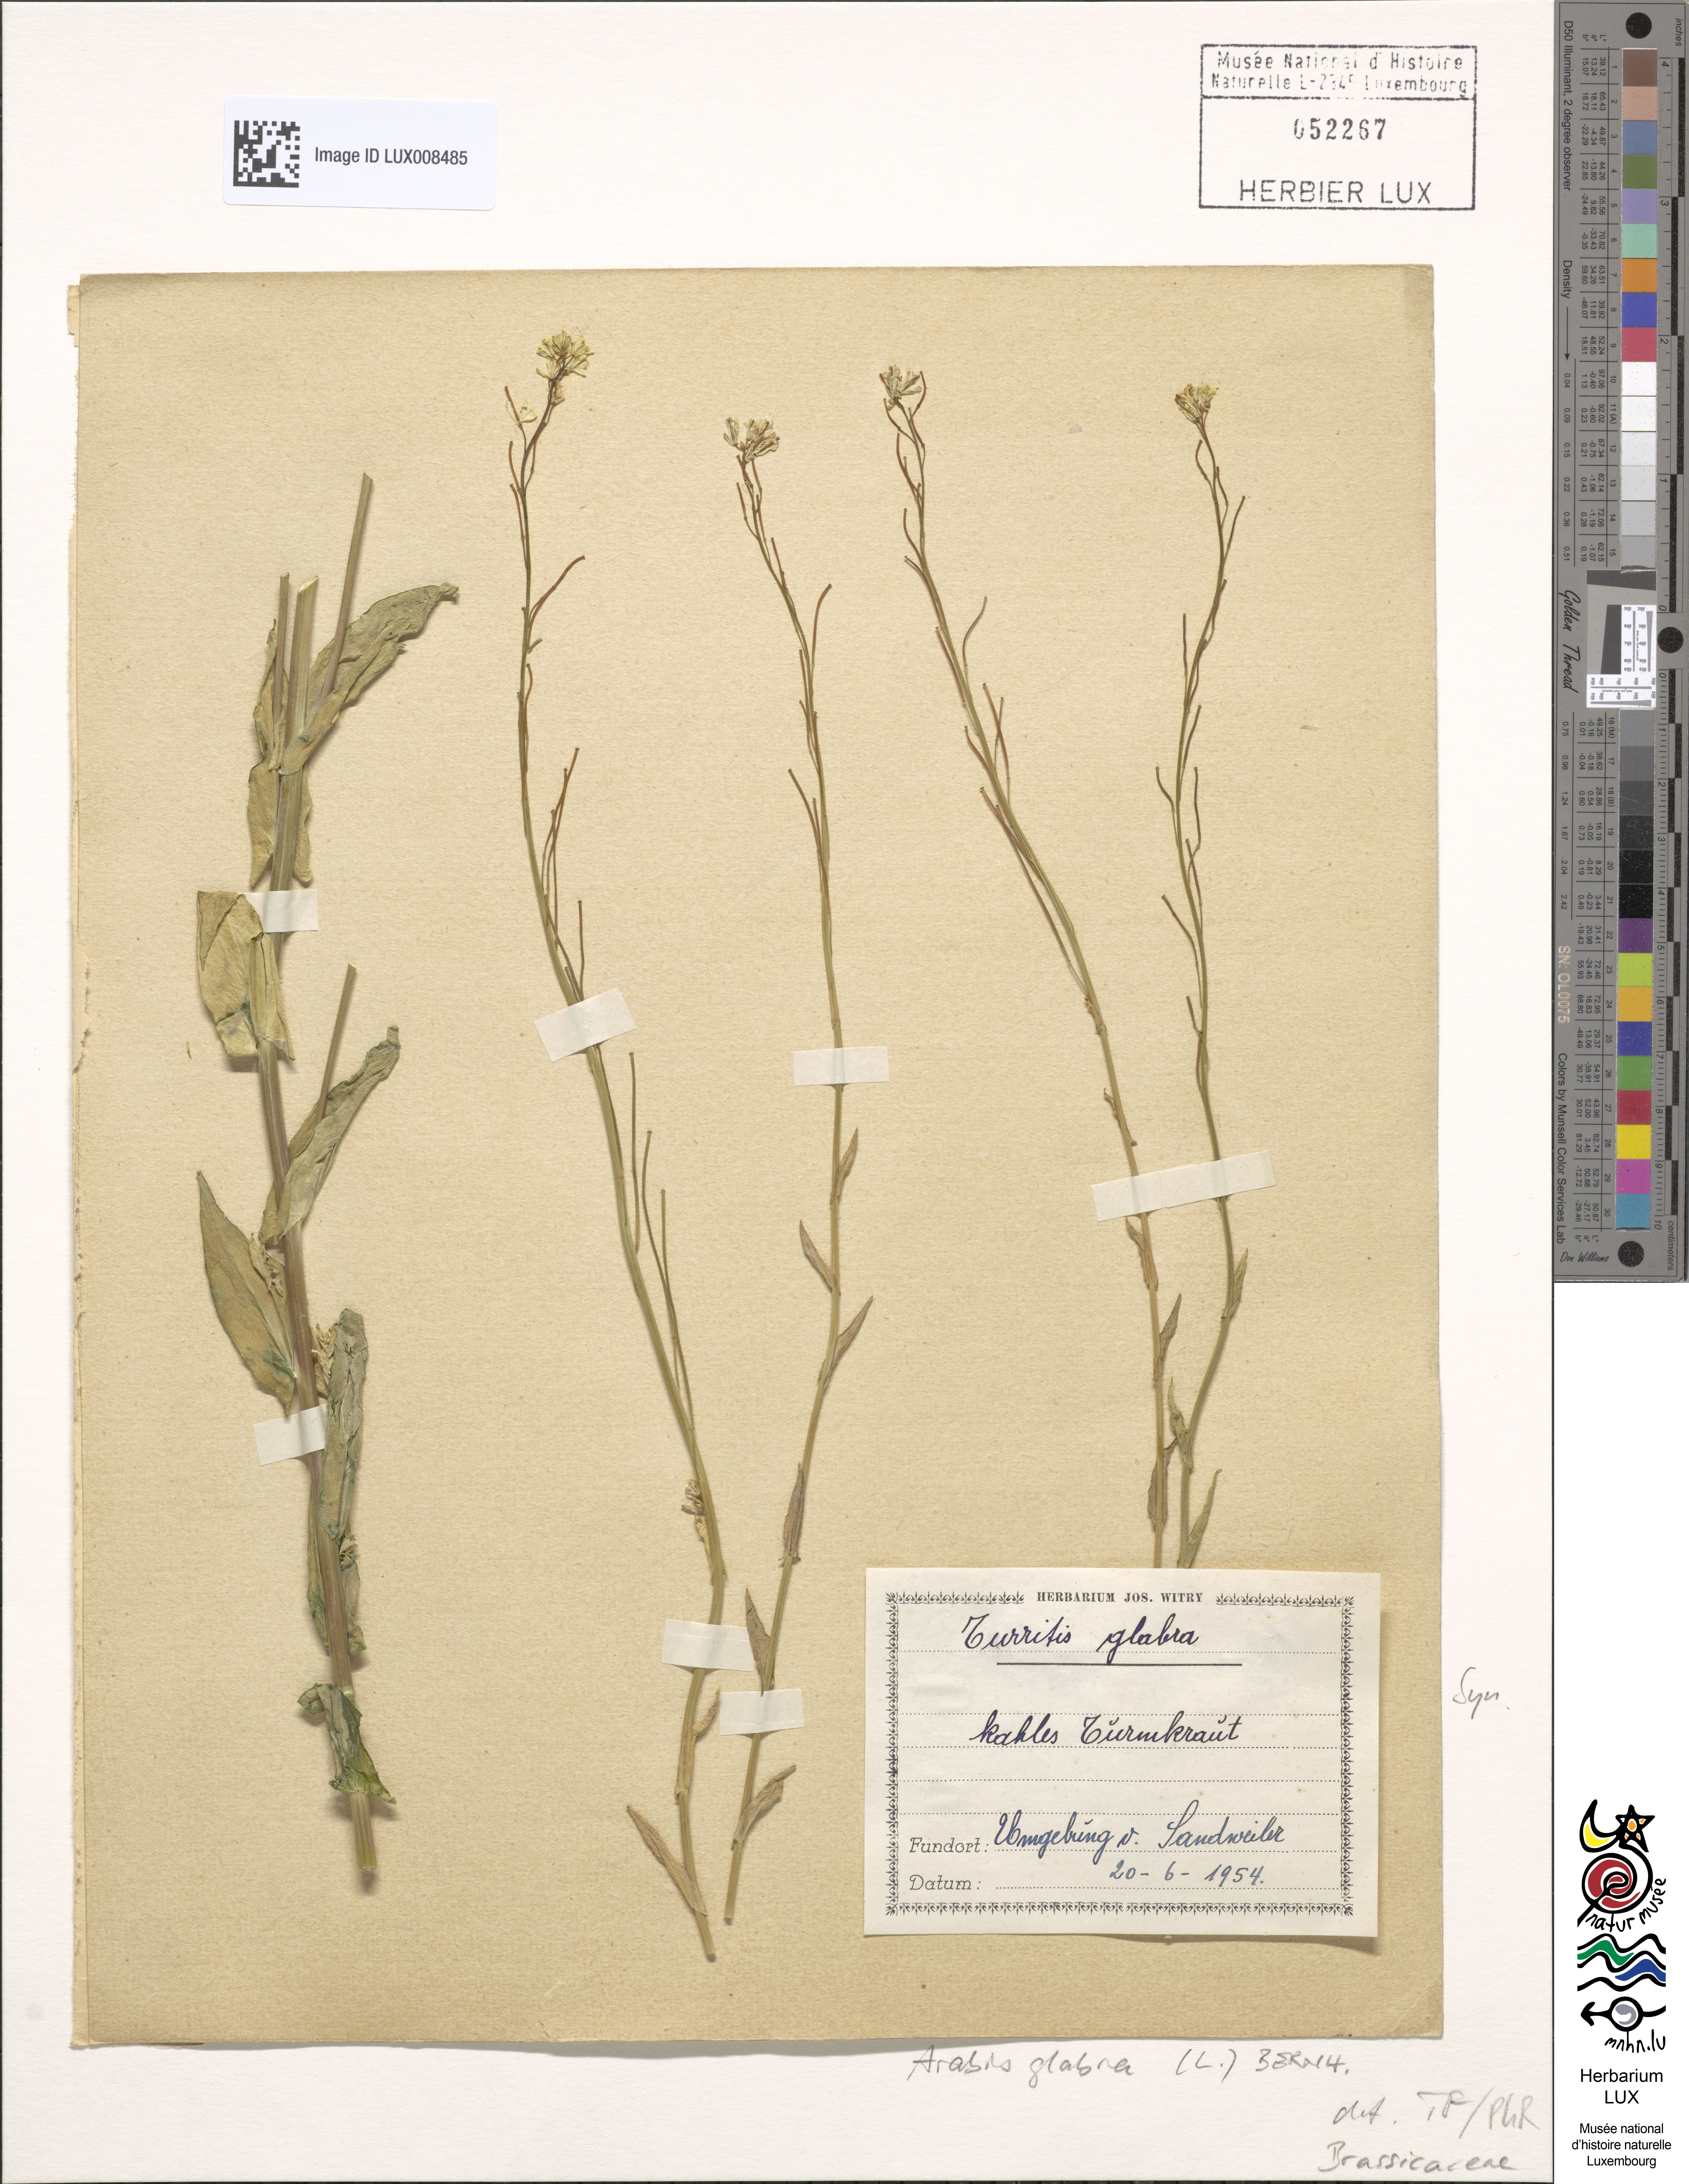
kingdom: Plantae
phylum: Tracheophyta
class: Magnoliopsida
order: Brassicales
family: Brassicaceae
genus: Turritis
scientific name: Turritis glabra
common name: Tower rockcress
